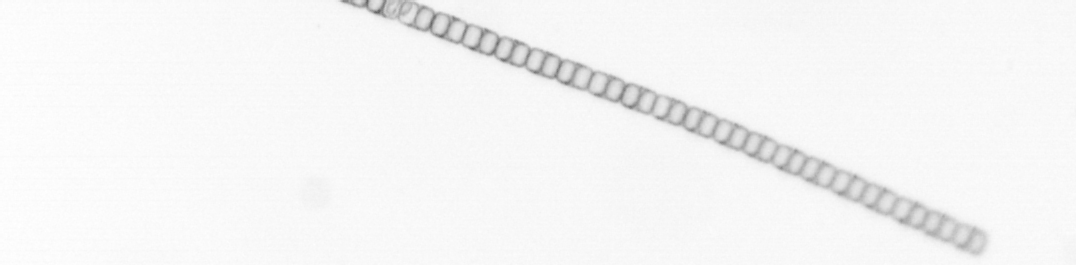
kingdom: Chromista
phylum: Ochrophyta
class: Bacillariophyceae
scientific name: Bacillariophyceae
